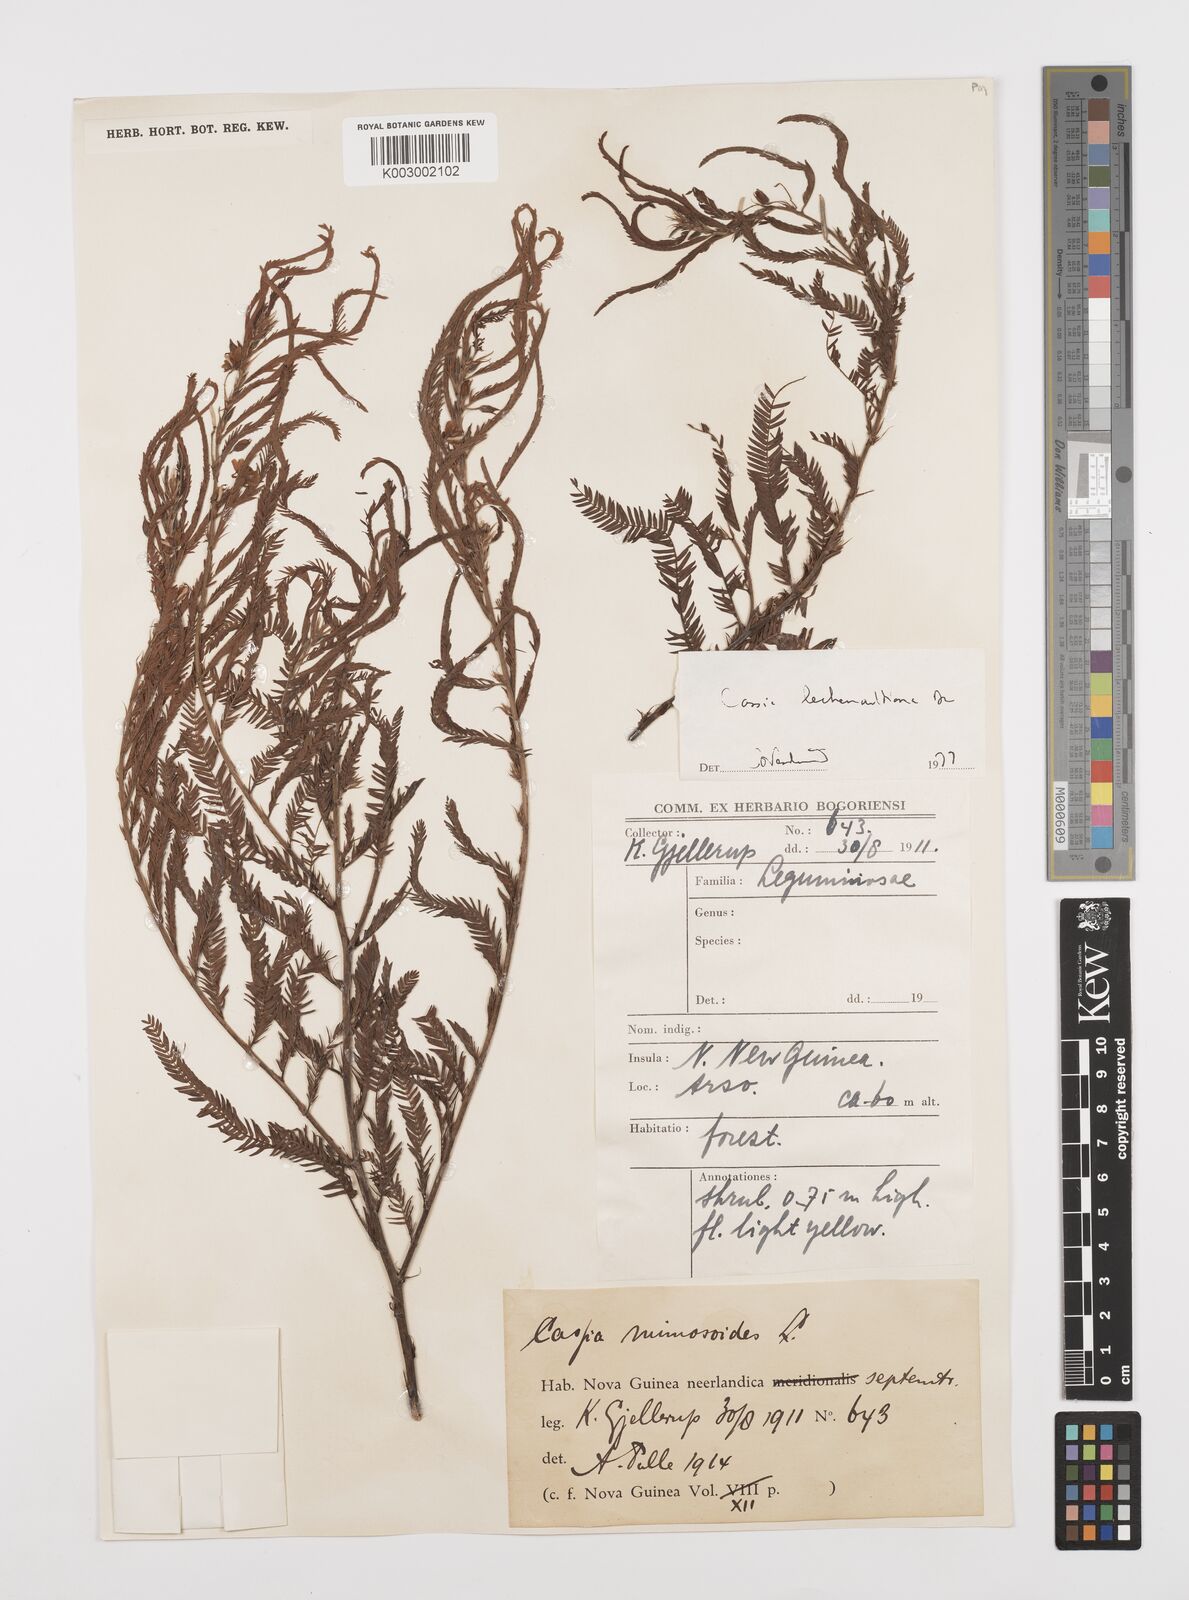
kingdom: Plantae
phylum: Tracheophyta
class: Magnoliopsida
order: Fabales
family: Fabaceae
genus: Chamaecrista
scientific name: Chamaecrista mimosoides
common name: Fish-bone cassia
